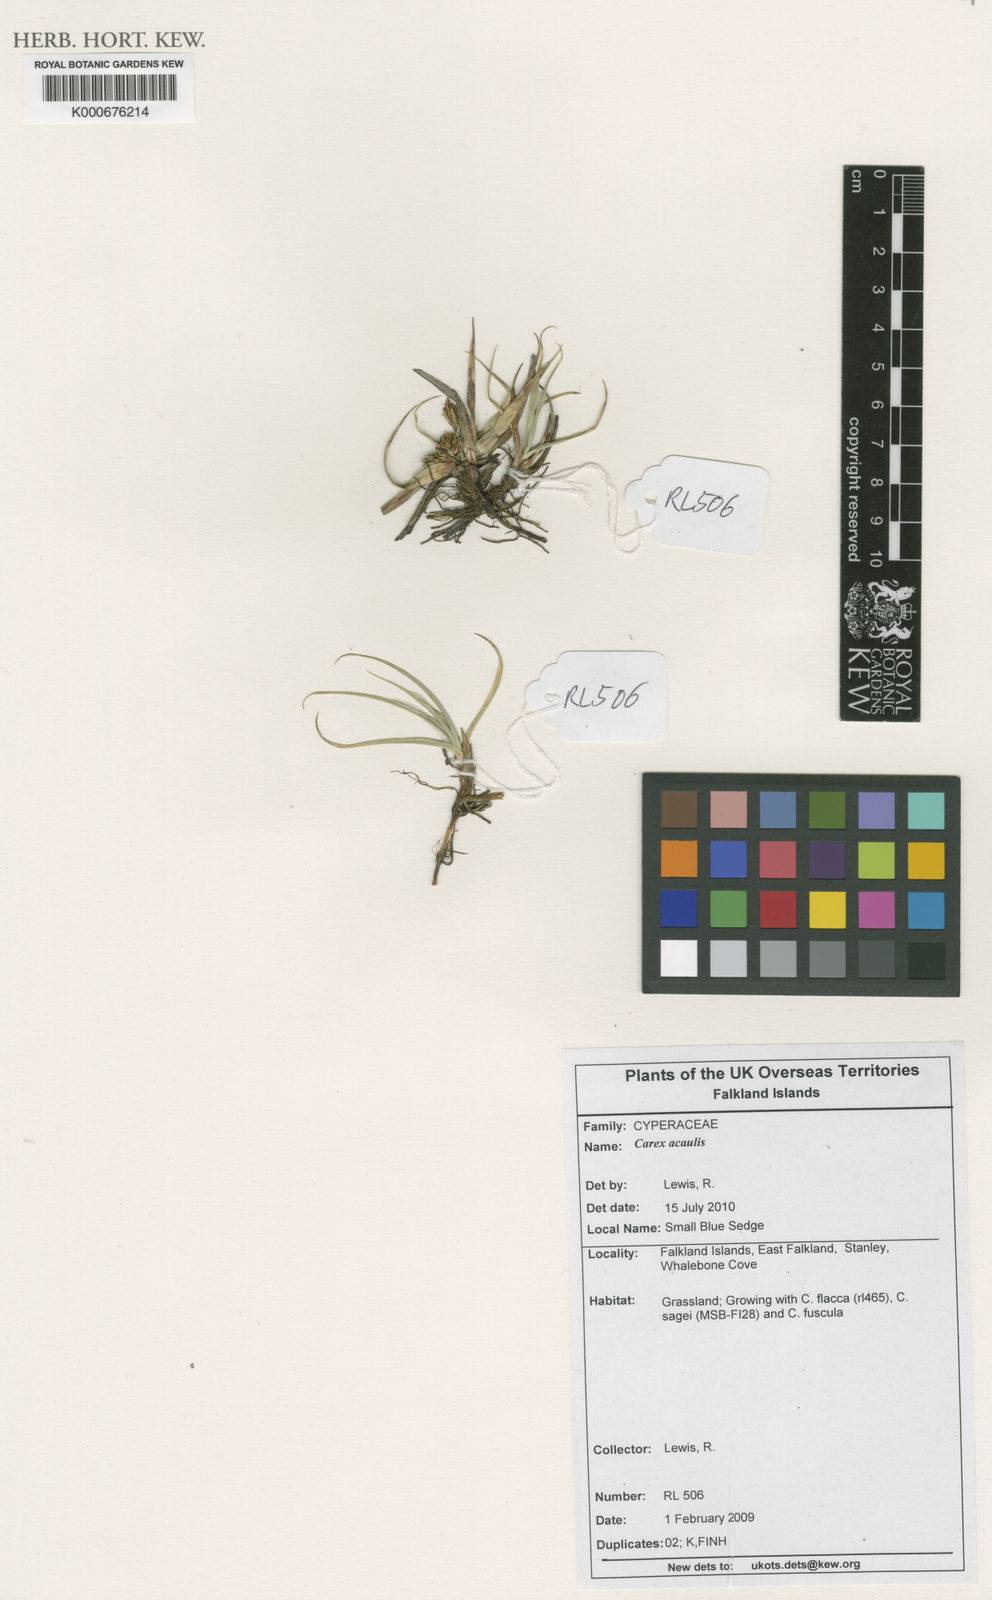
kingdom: Plantae
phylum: Tracheophyta
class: Liliopsida
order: Poales
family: Cyperaceae
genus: Carex
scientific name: Carex acaulis
